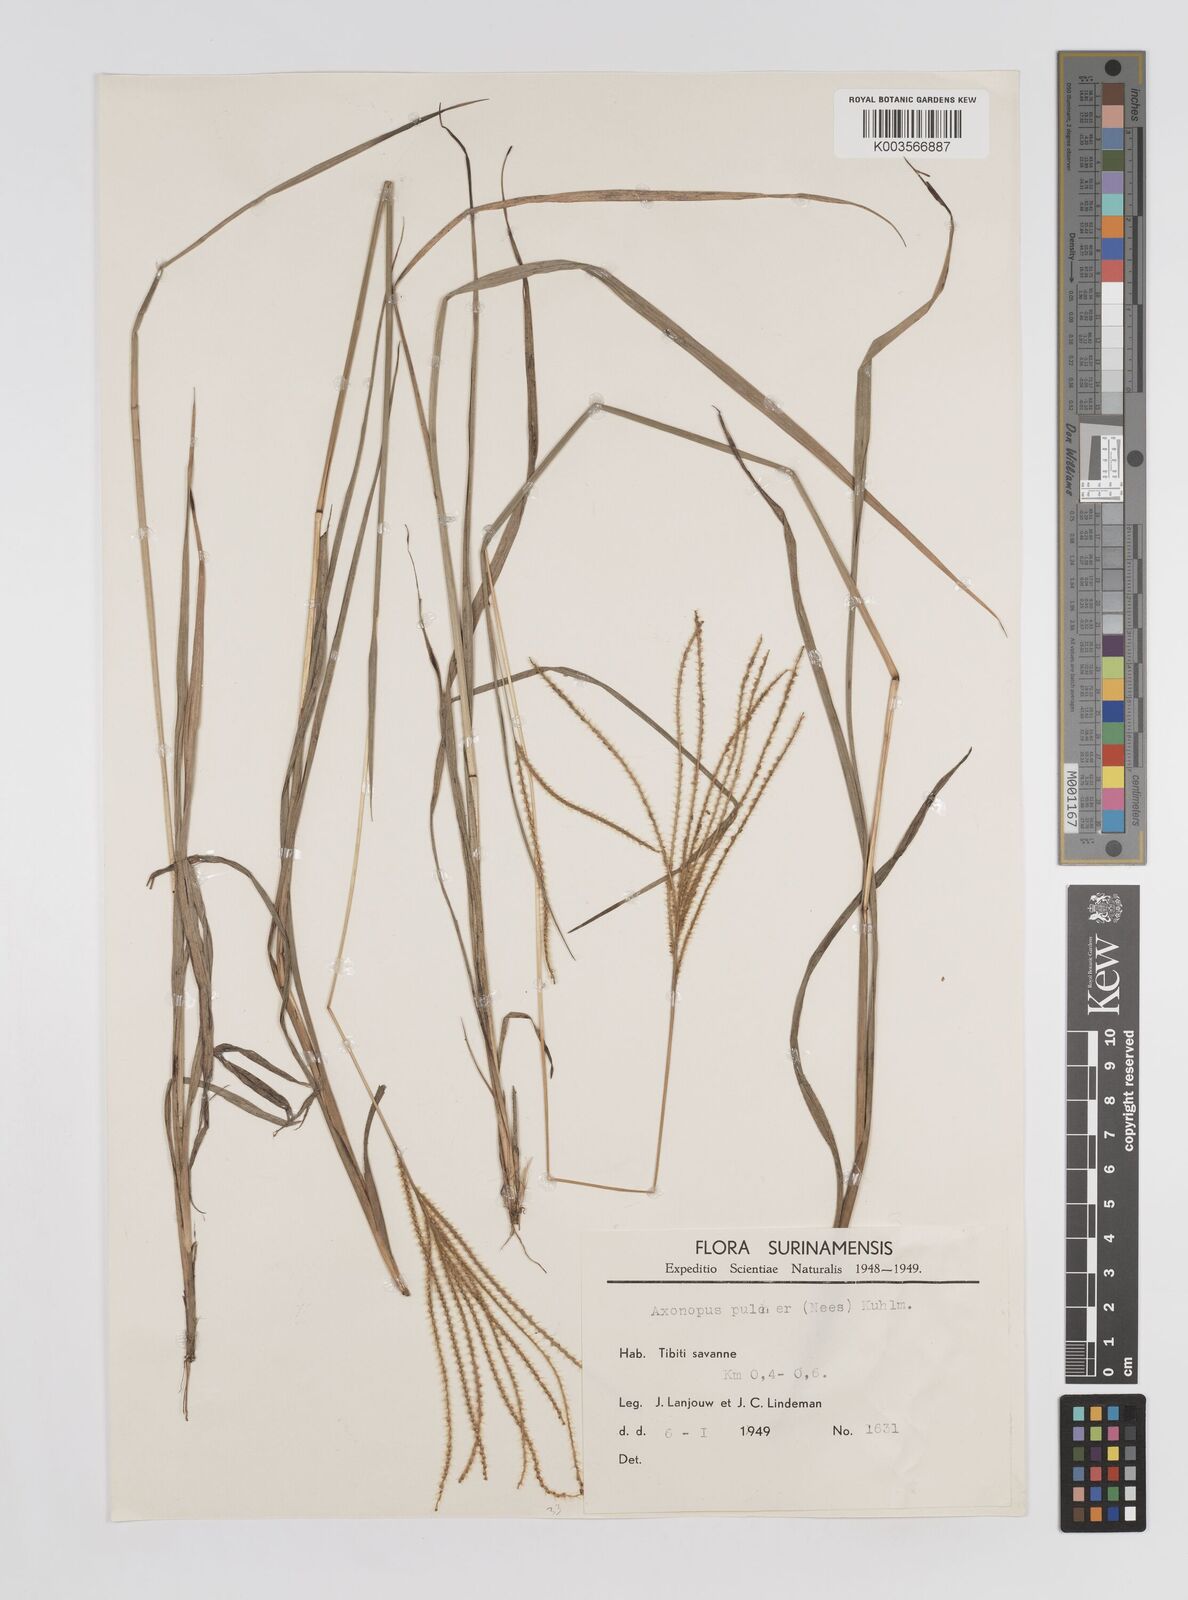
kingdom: Plantae
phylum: Tracheophyta
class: Liliopsida
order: Poales
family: Poaceae
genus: Axonopus
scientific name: Axonopus aureus
